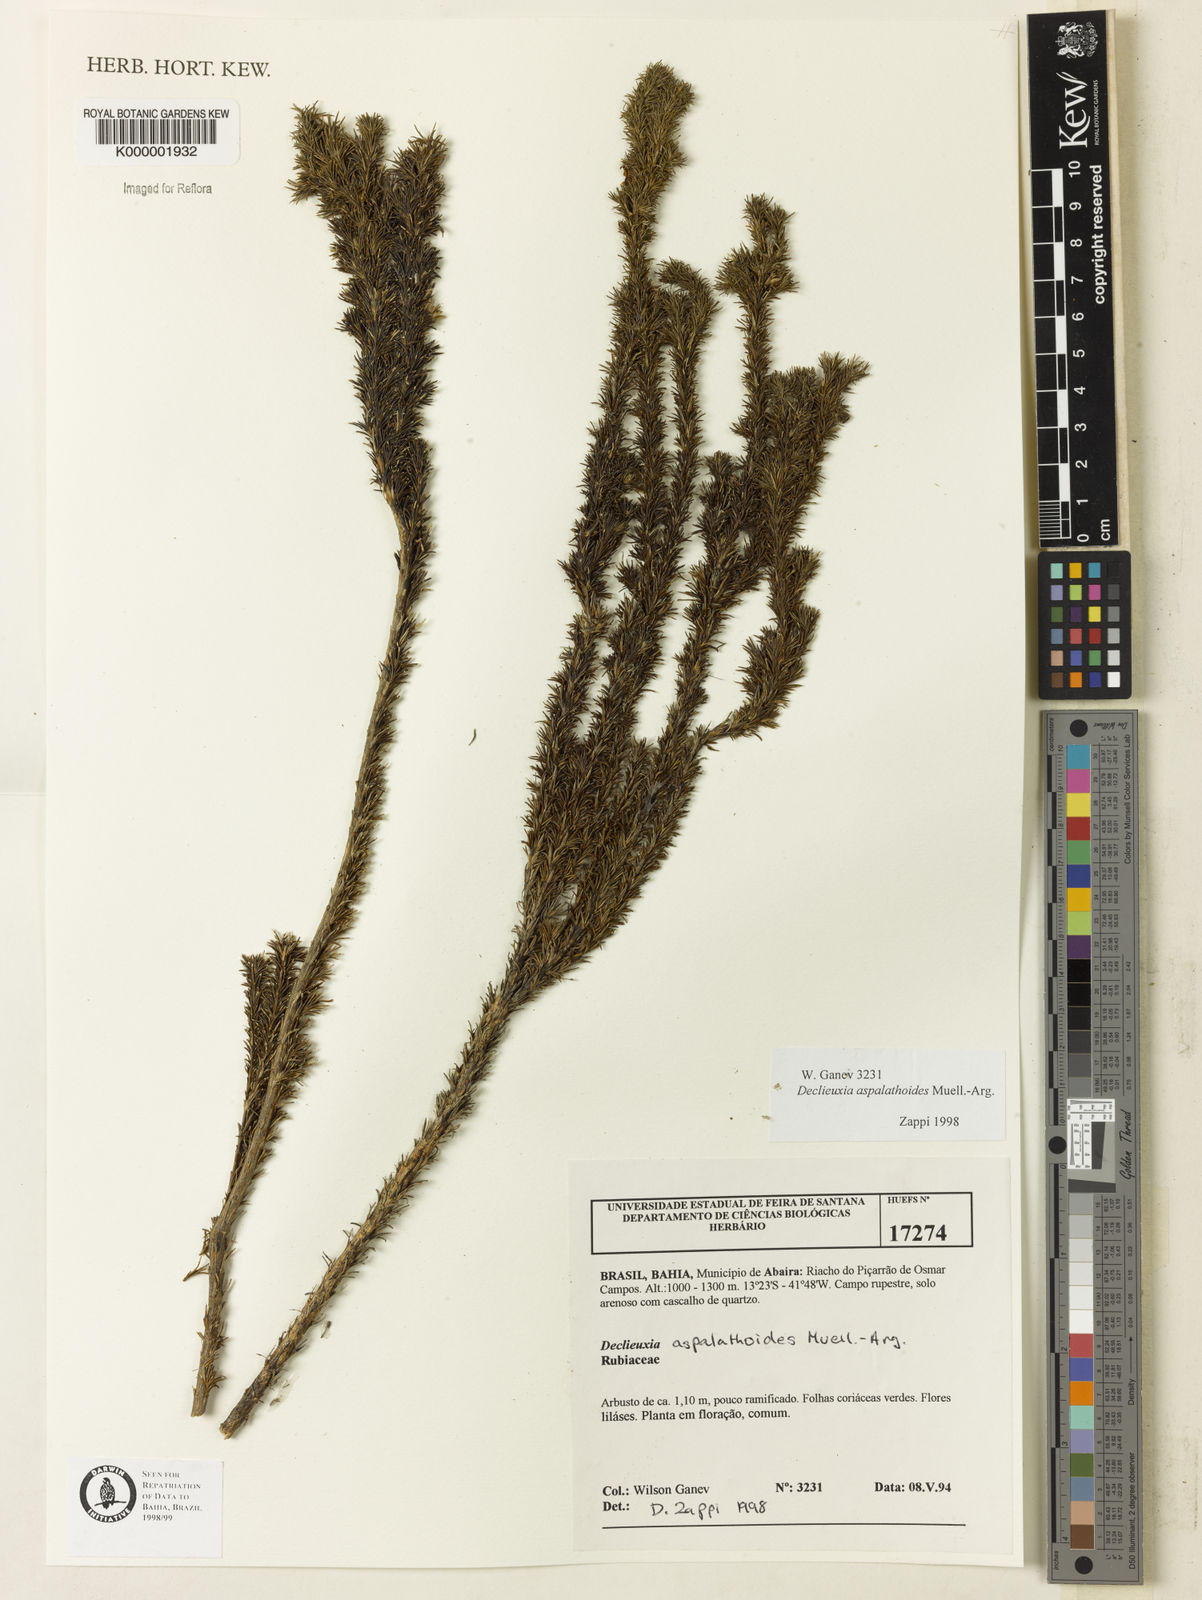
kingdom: Plantae
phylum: Tracheophyta
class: Magnoliopsida
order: Gentianales
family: Rubiaceae
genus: Declieuxia
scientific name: Declieuxia aspalathoides
